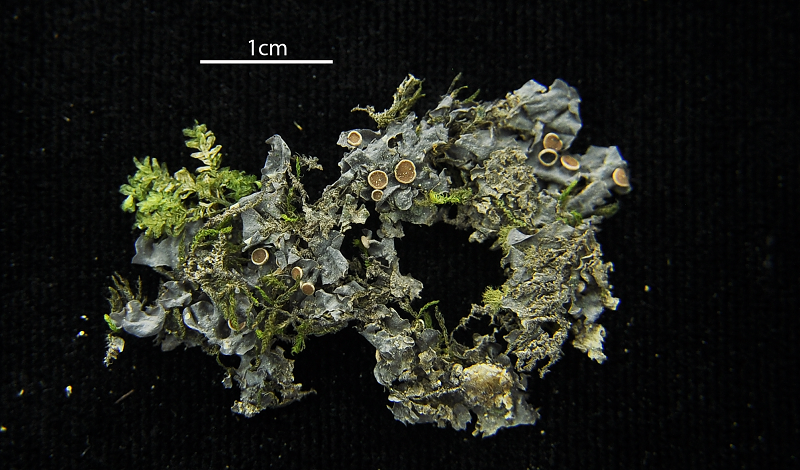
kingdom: Fungi
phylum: Ascomycota
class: Lecanoromycetes
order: Peltigerales
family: Collemataceae
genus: Leptogium
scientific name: Leptogium
